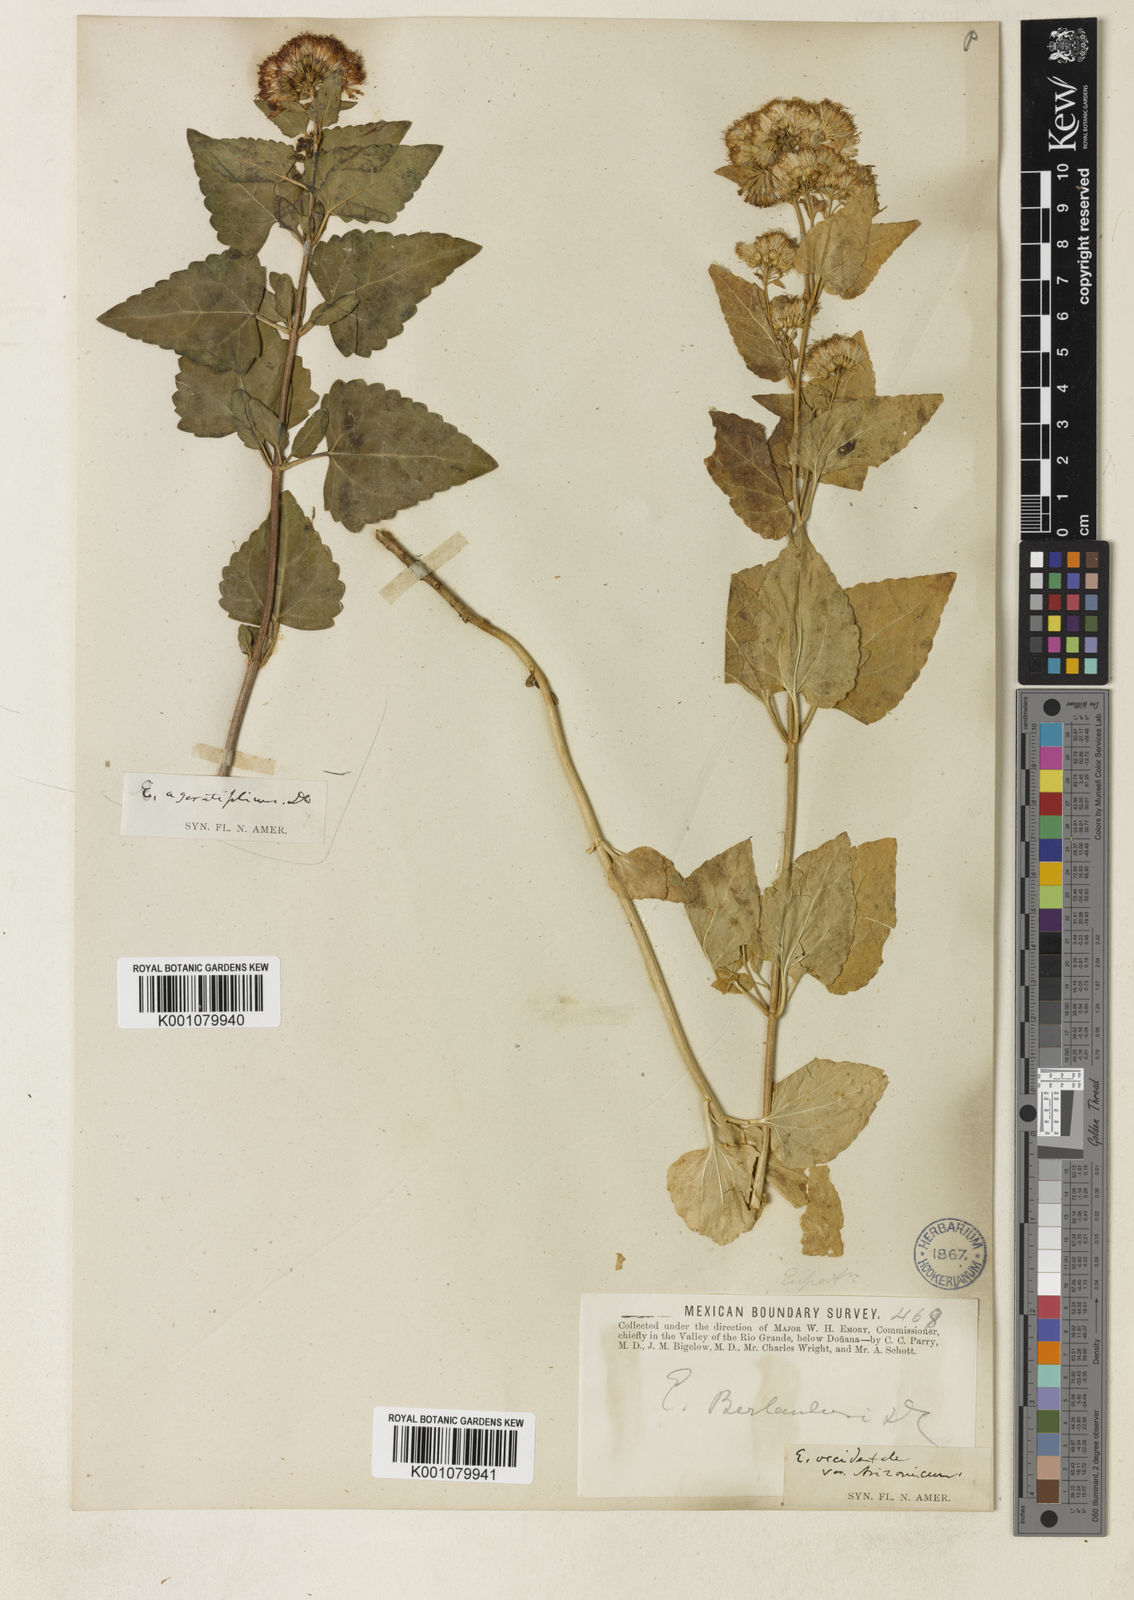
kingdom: Plantae
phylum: Tracheophyta
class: Magnoliopsida
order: Asterales
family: Asteraceae
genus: Ageratina
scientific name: Ageratina occidentalis
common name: Western snakeroot
